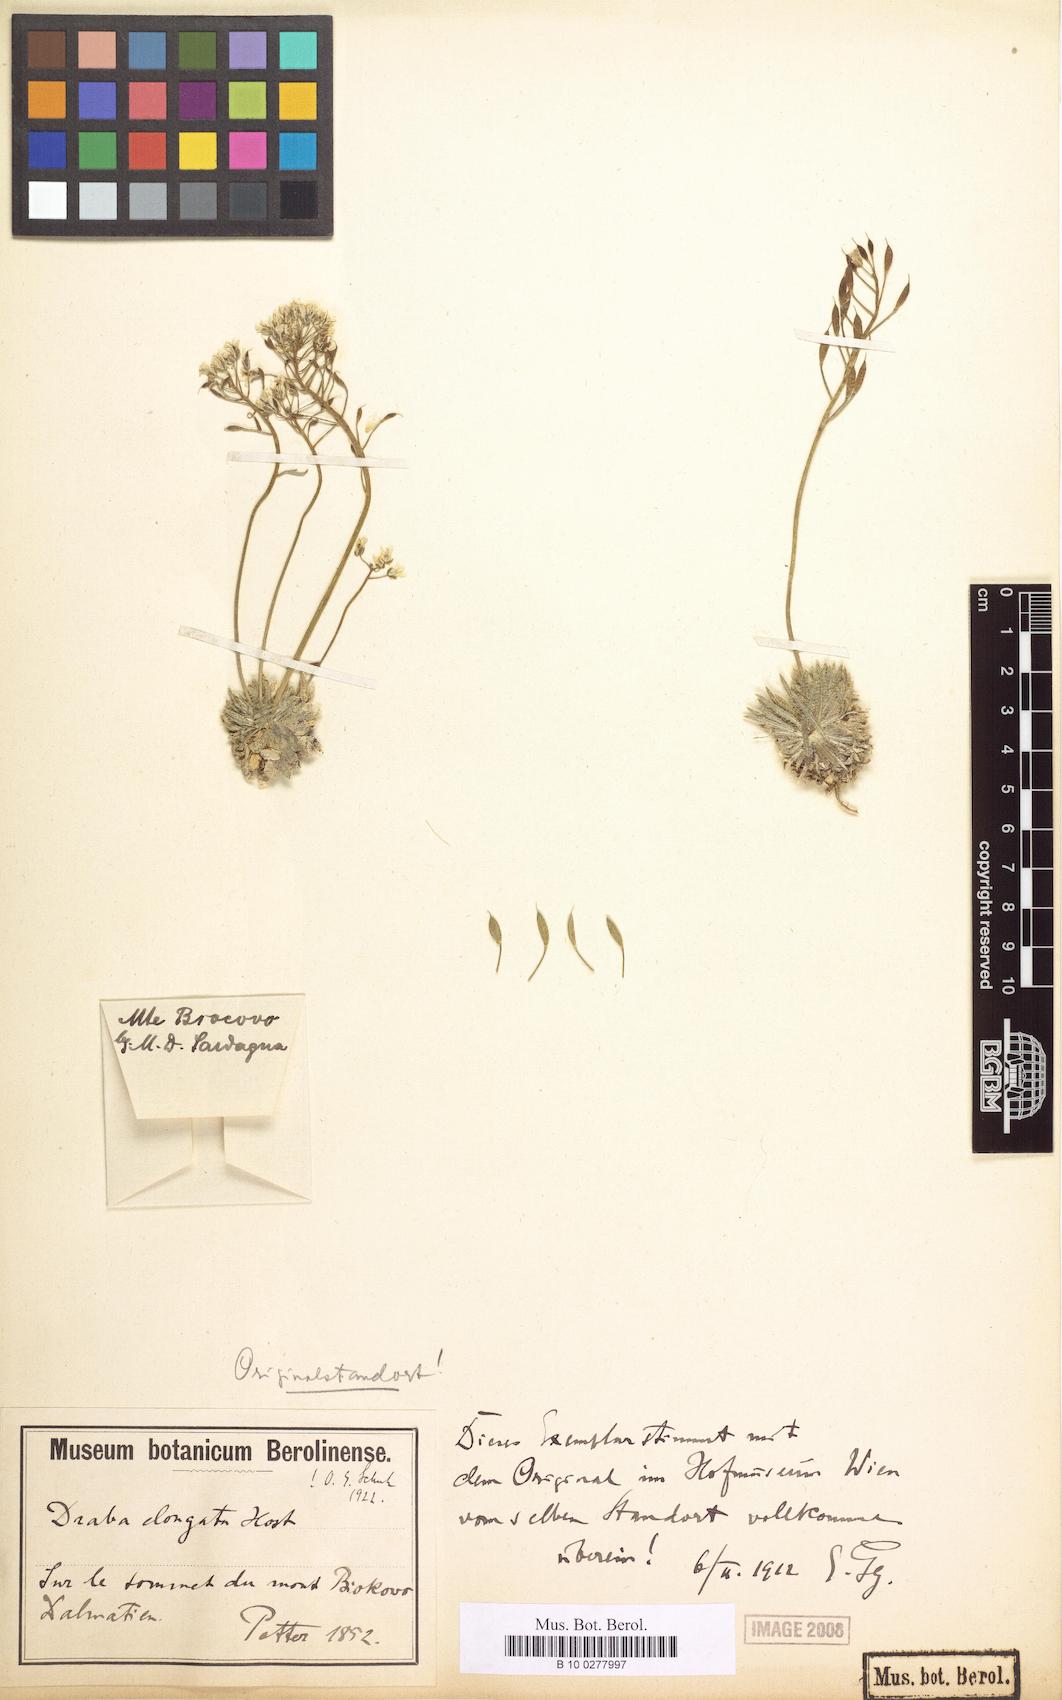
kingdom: Plantae
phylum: Tracheophyta
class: Magnoliopsida
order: Brassicales
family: Brassicaceae
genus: Draba
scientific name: Draba lasiocarpa
